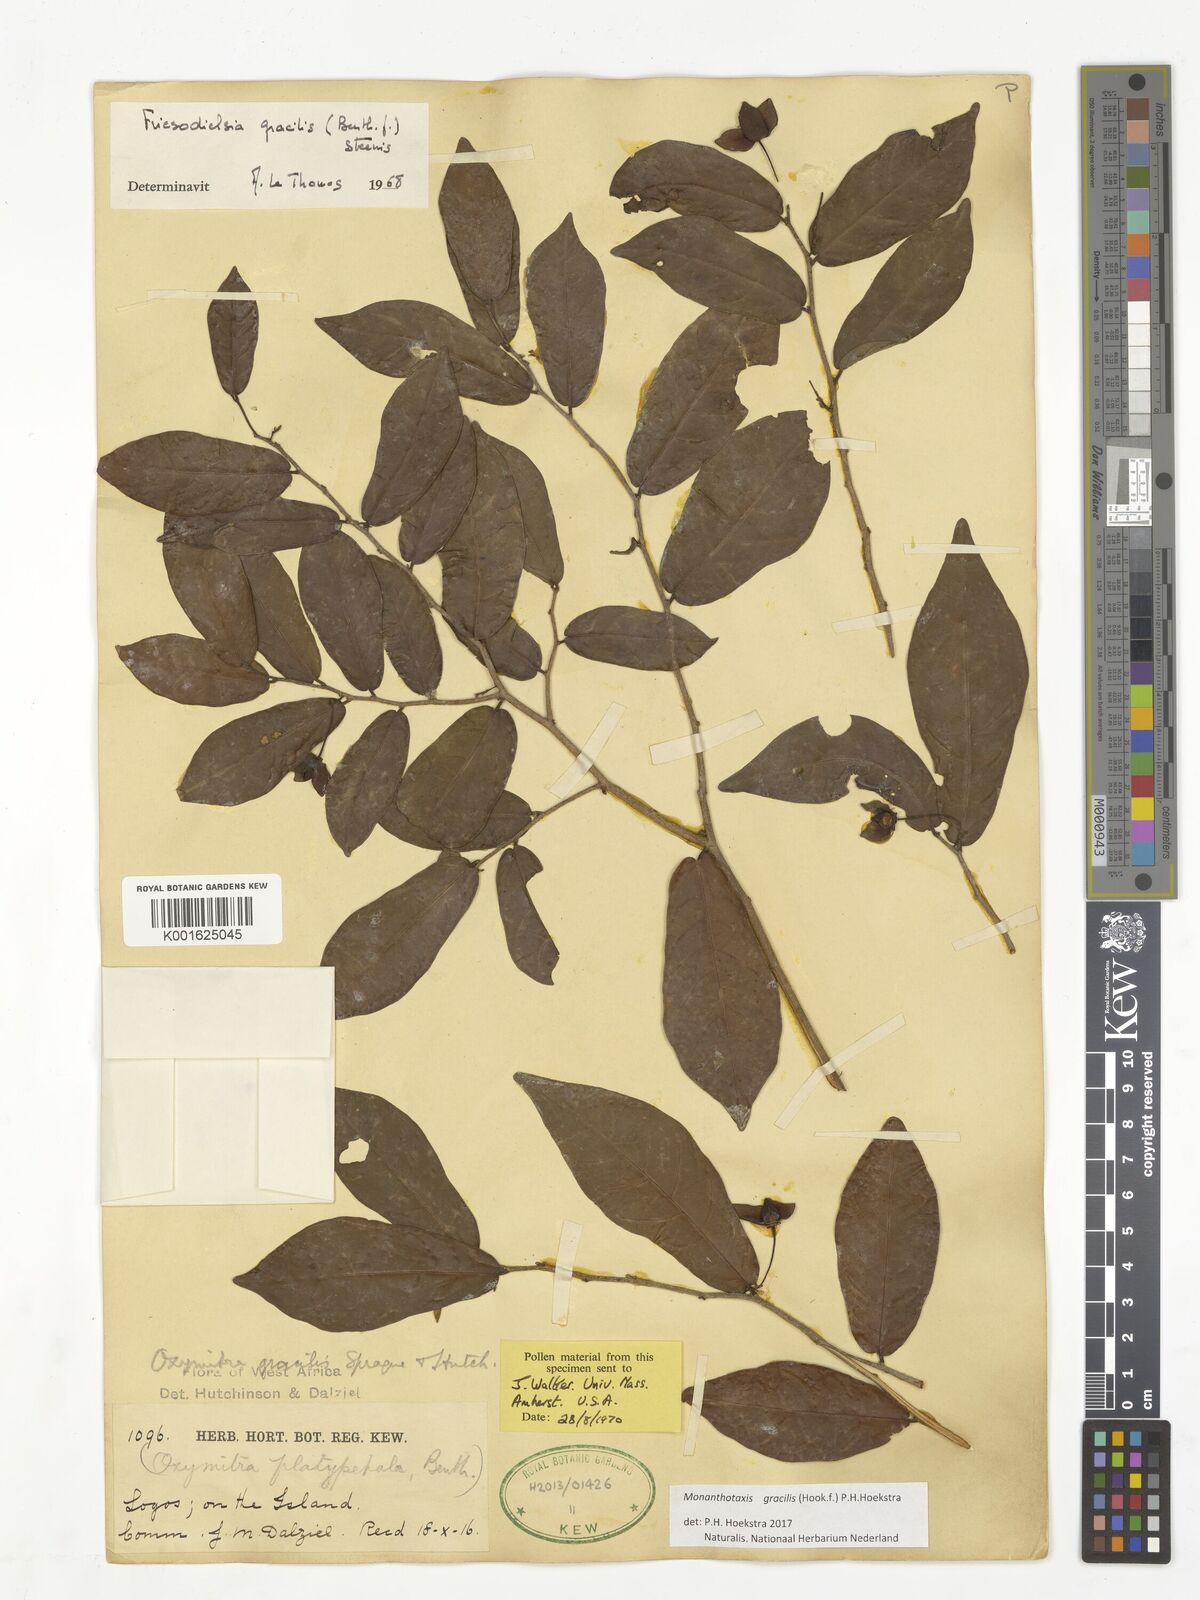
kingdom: Plantae
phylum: Tracheophyta
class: Magnoliopsida
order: Magnoliales
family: Annonaceae
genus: Friesodielsia
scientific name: Friesodielsia gracilis
